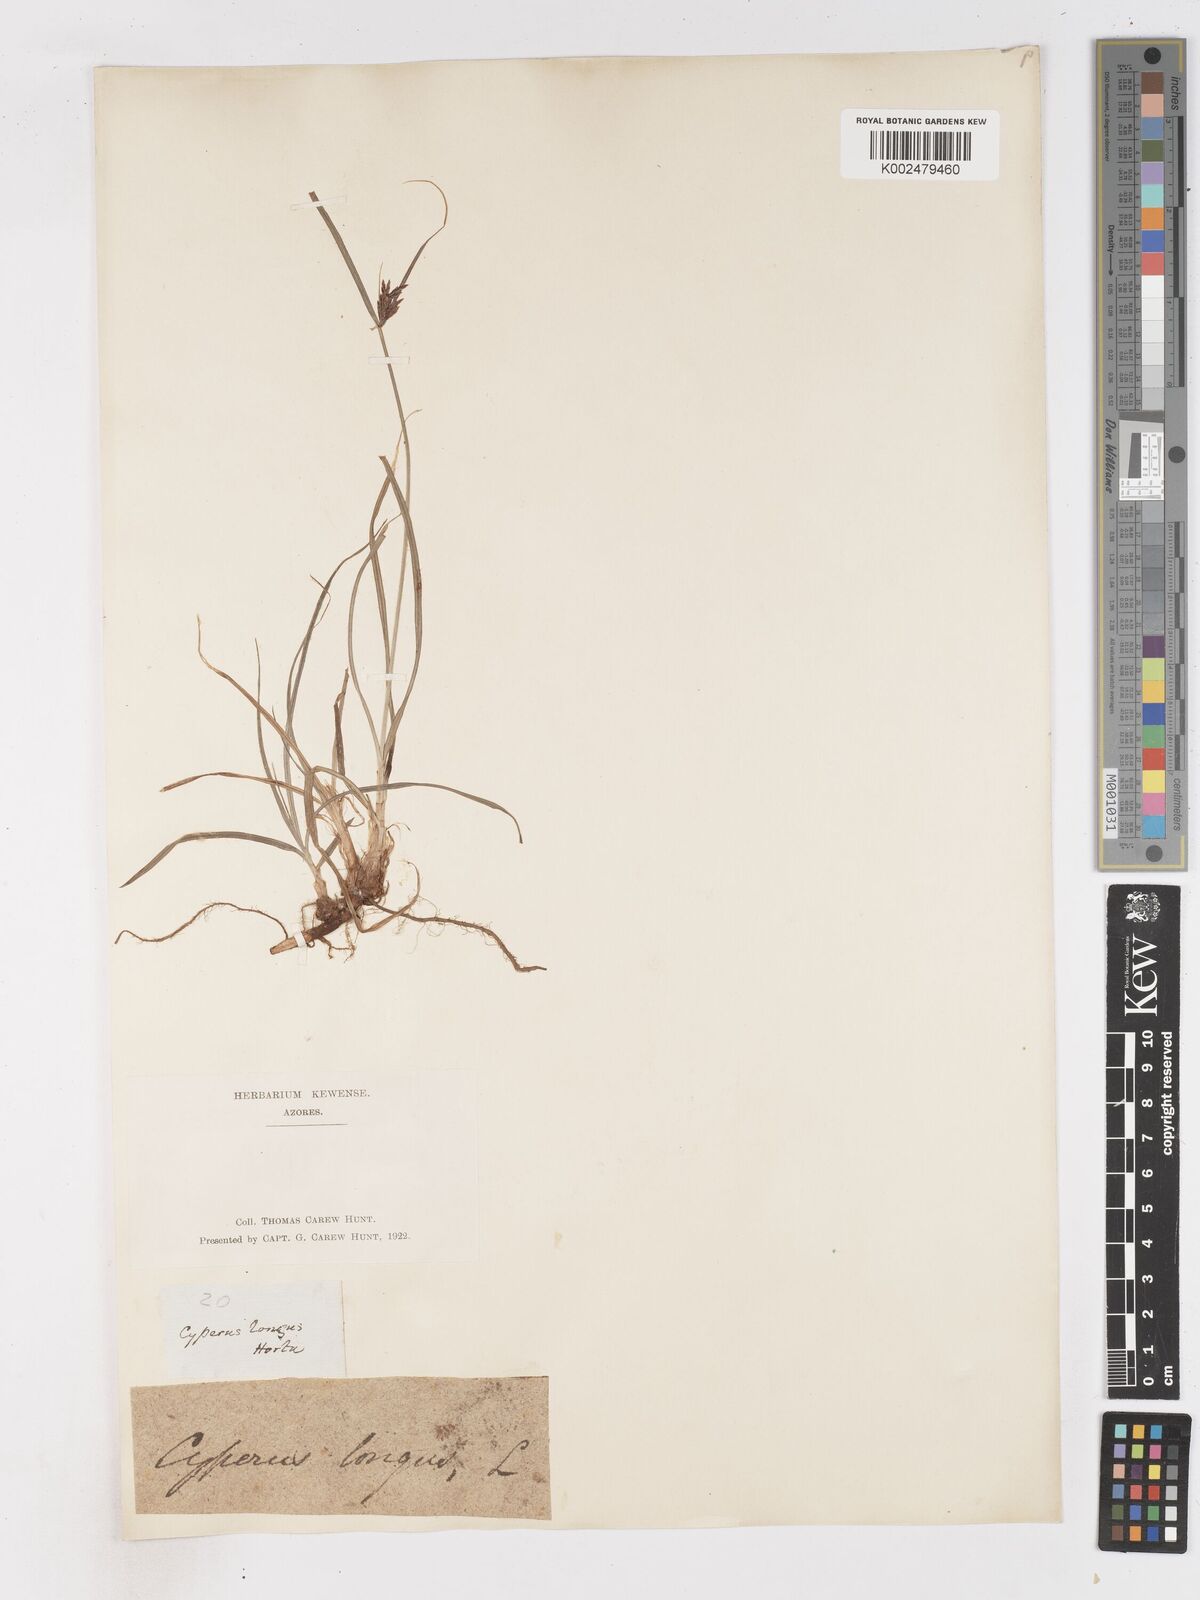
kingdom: Plantae
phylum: Tracheophyta
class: Liliopsida
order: Poales
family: Cyperaceae
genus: Cyperus
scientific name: Cyperus longus
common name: Galingale
